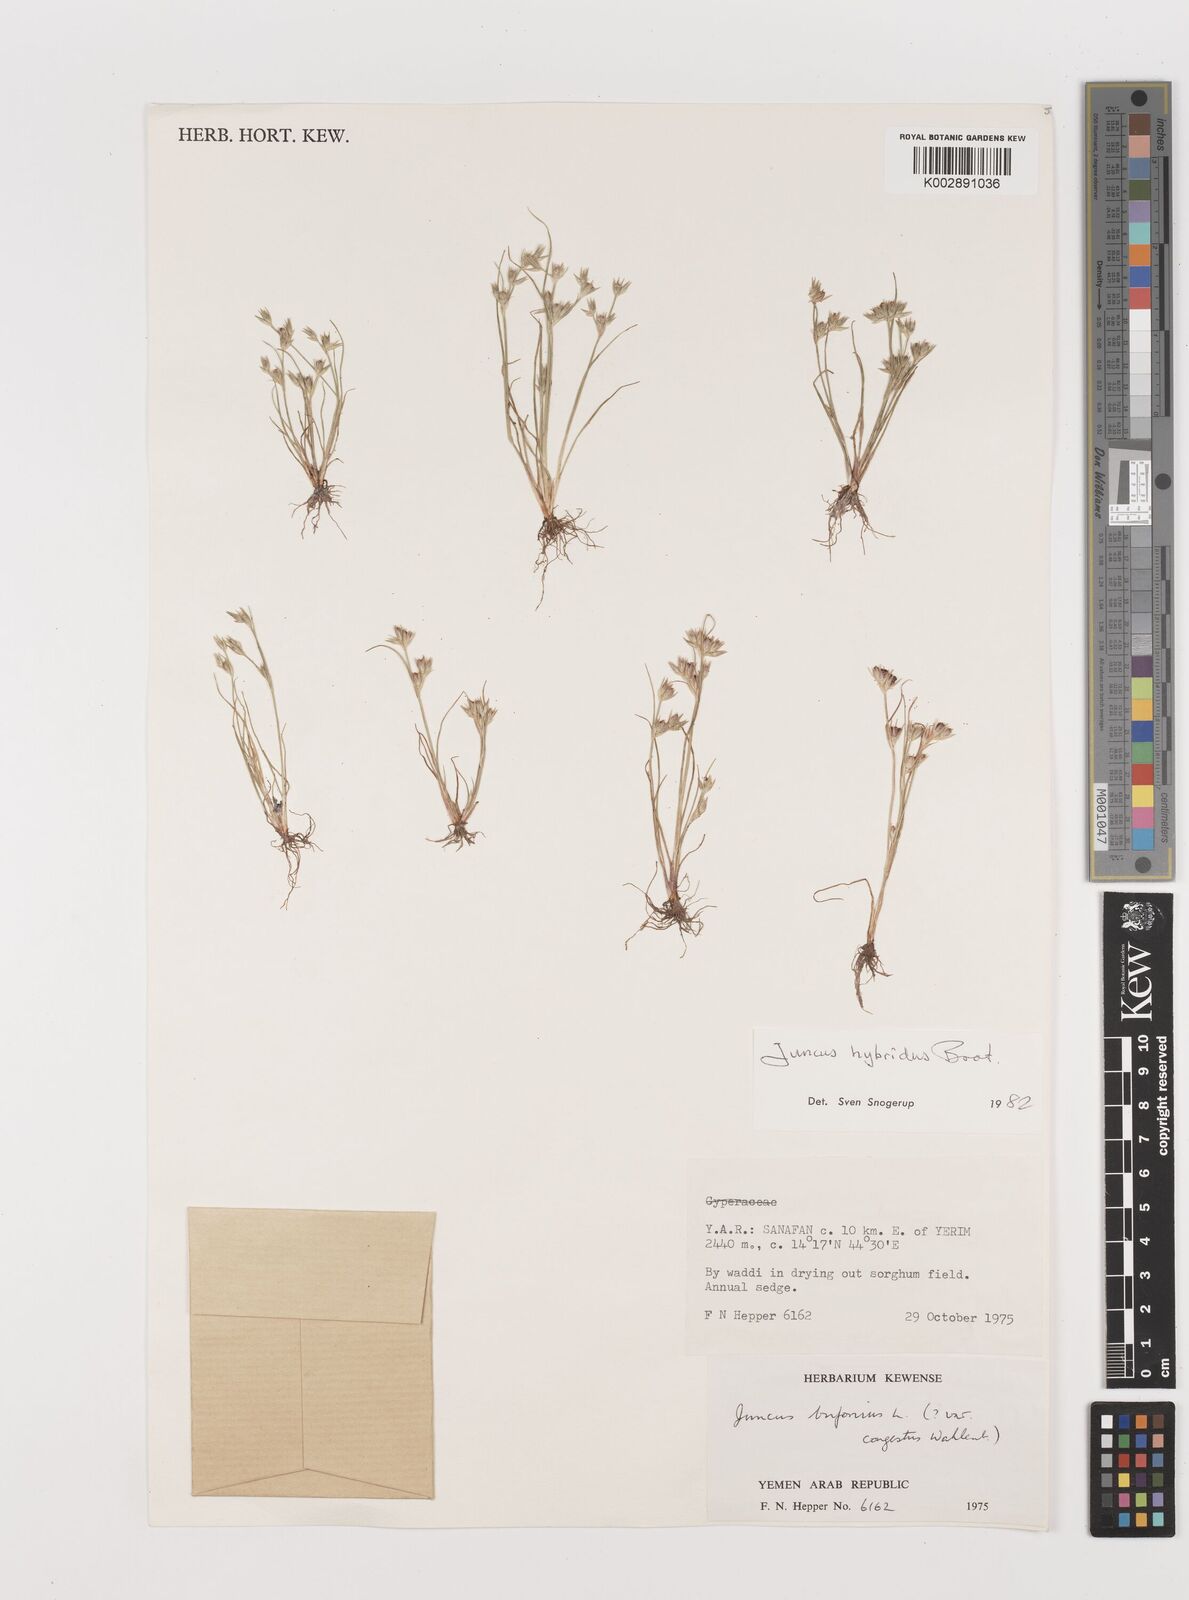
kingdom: Plantae
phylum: Tracheophyta
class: Liliopsida
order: Poales
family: Juncaceae
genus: Juncus
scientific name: Juncus bufonius
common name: Toad rush
